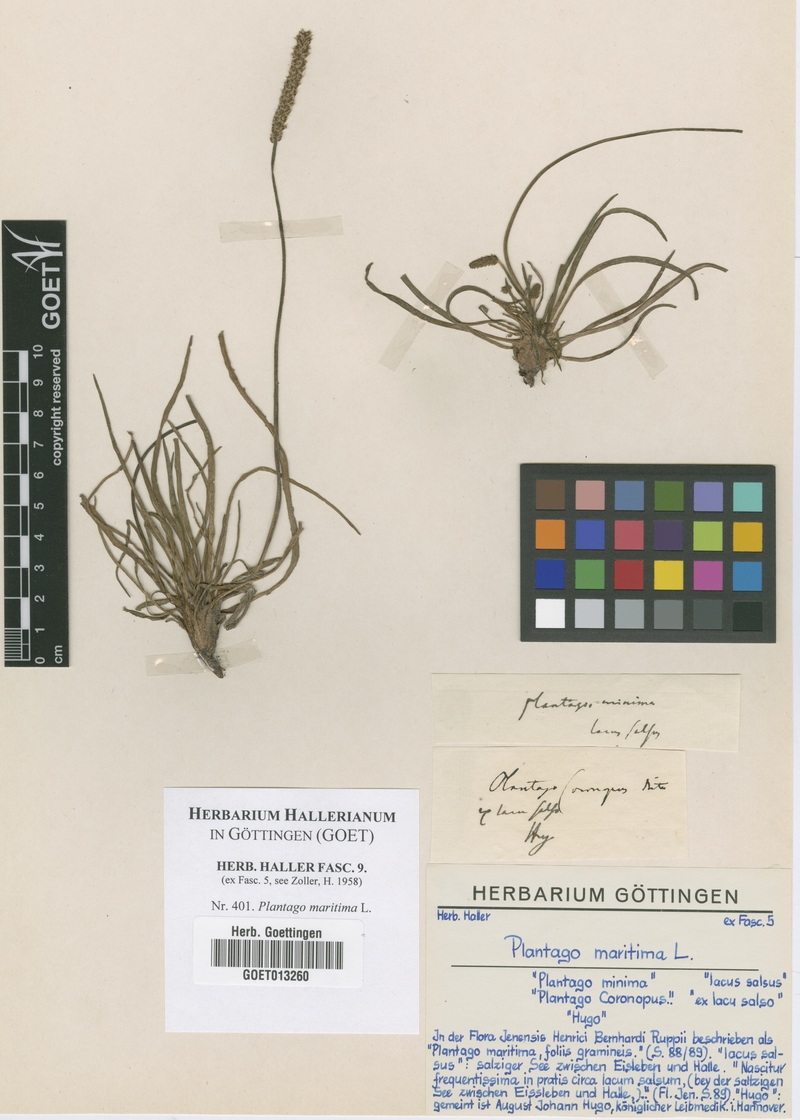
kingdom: Plantae
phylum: Tracheophyta
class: Magnoliopsida
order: Lamiales
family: Plantaginaceae
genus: Plantago
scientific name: Plantago maritima
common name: Sea plantain
